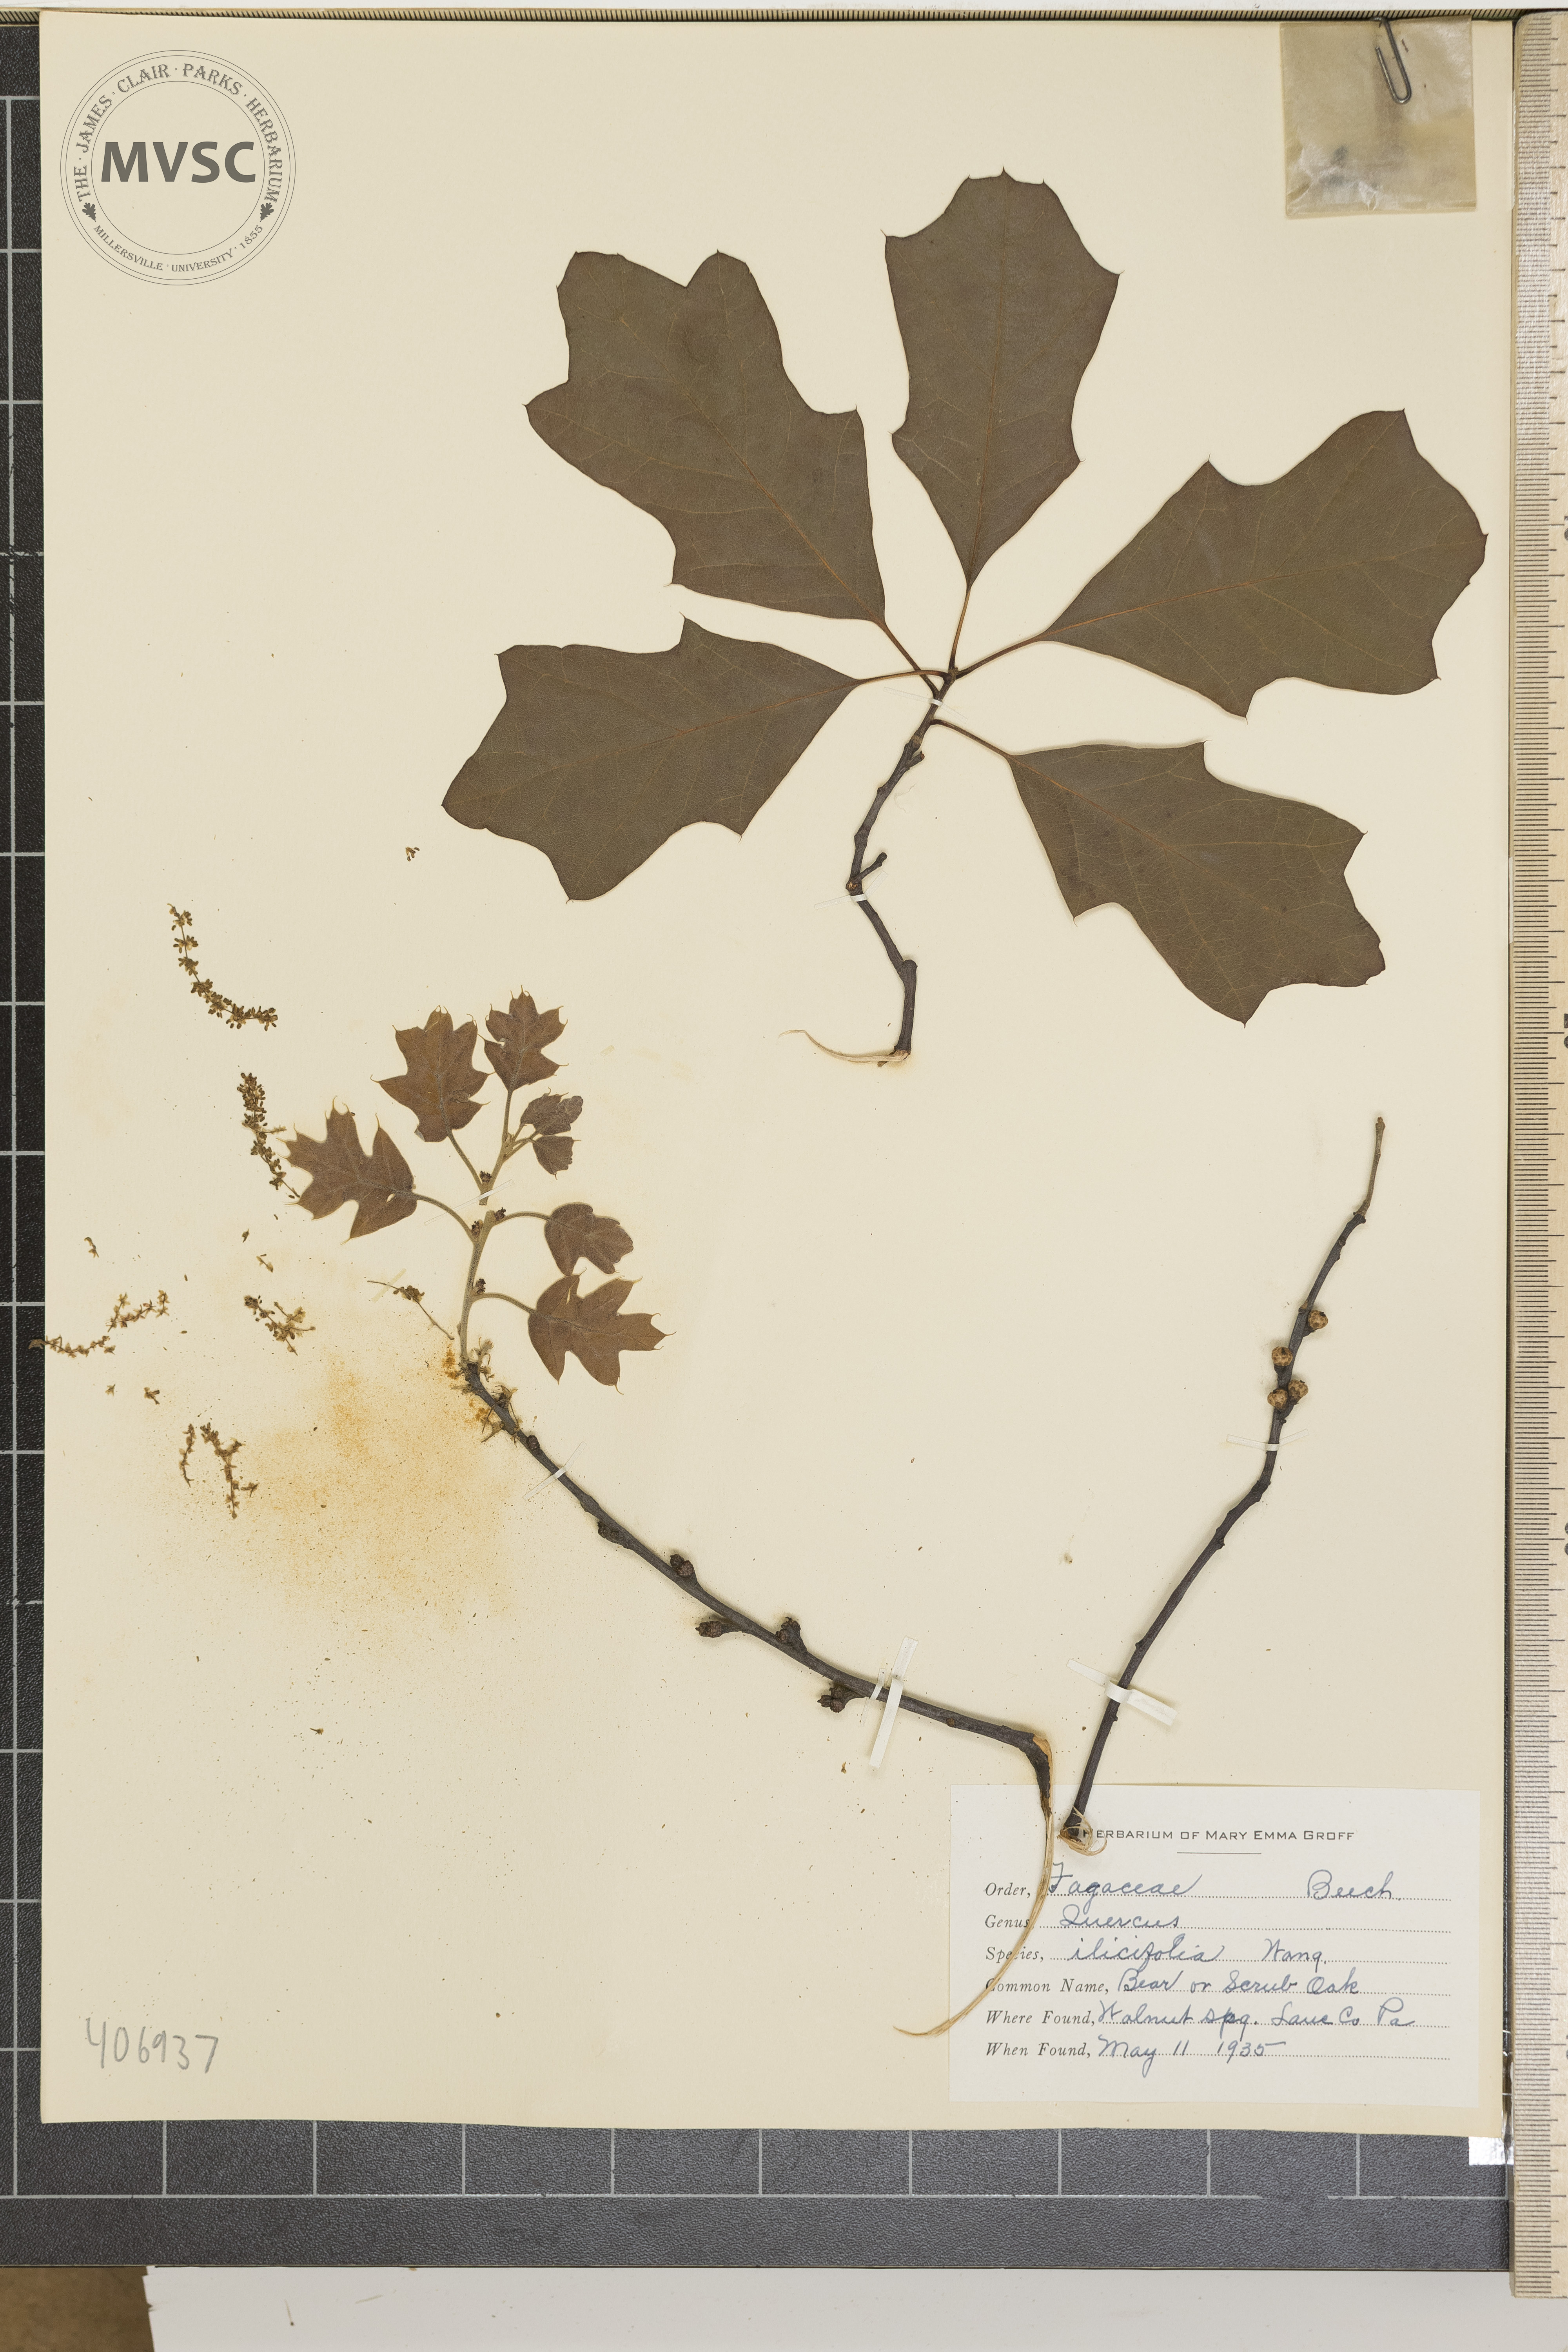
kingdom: Plantae
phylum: Tracheophyta
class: Magnoliopsida
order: Fagales
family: Fagaceae
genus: Quercus
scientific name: Quercus ilicifolia
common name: Bear oak
